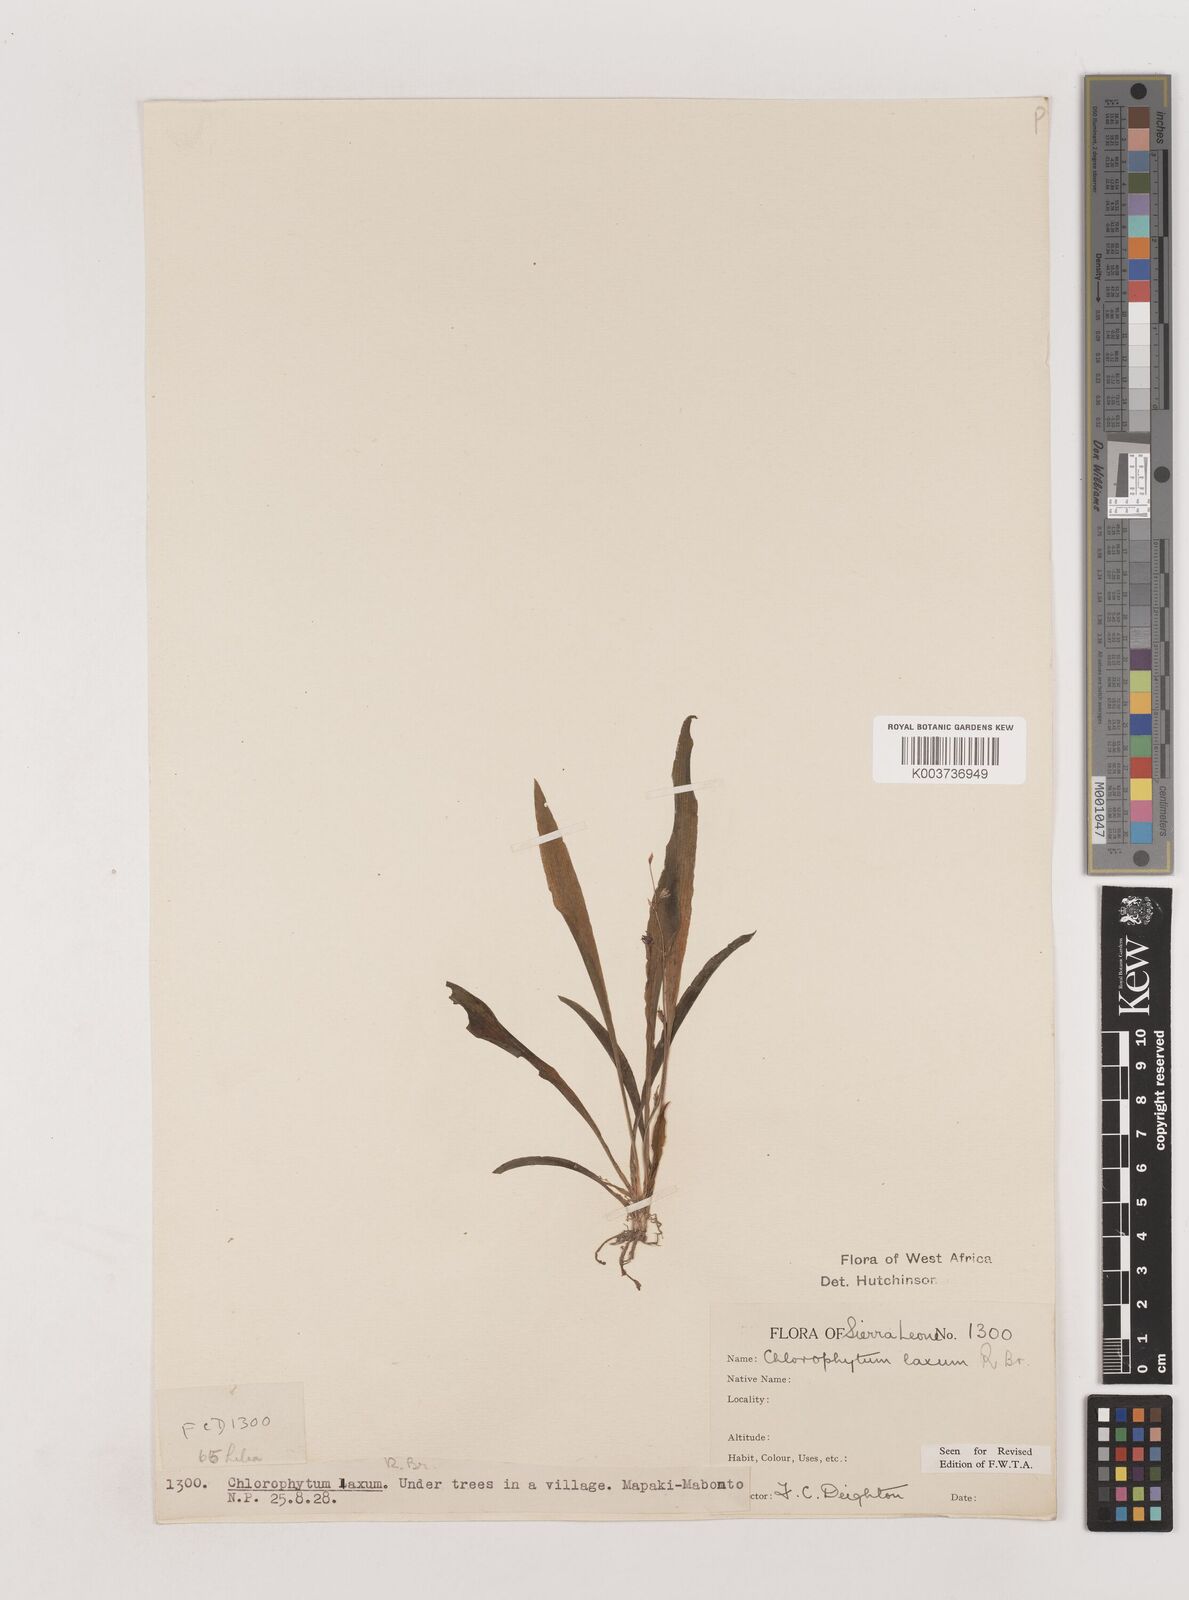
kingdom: Plantae
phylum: Tracheophyta
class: Liliopsida
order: Asparagales
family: Asparagaceae
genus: Chlorophytum
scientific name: Chlorophytum laxum
